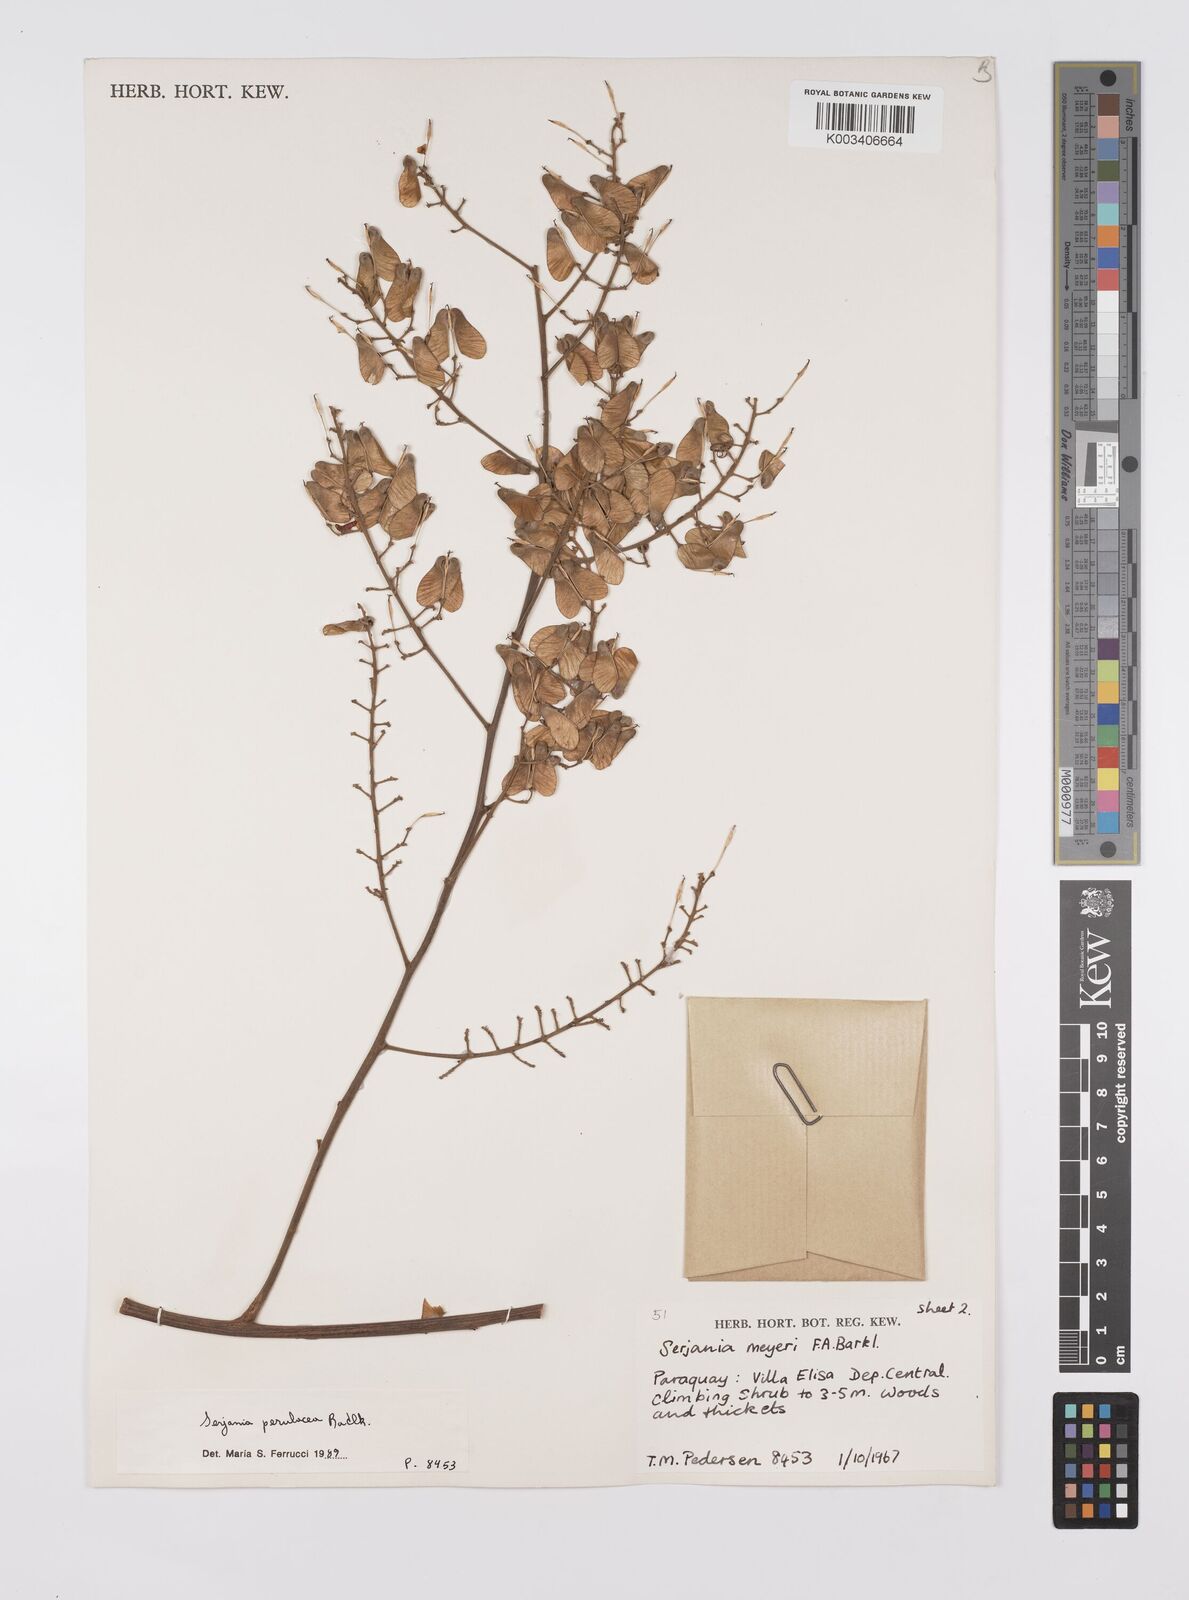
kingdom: Plantae
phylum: Tracheophyta
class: Magnoliopsida
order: Sapindales
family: Sapindaceae
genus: Serjania
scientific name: Serjania perulacea
